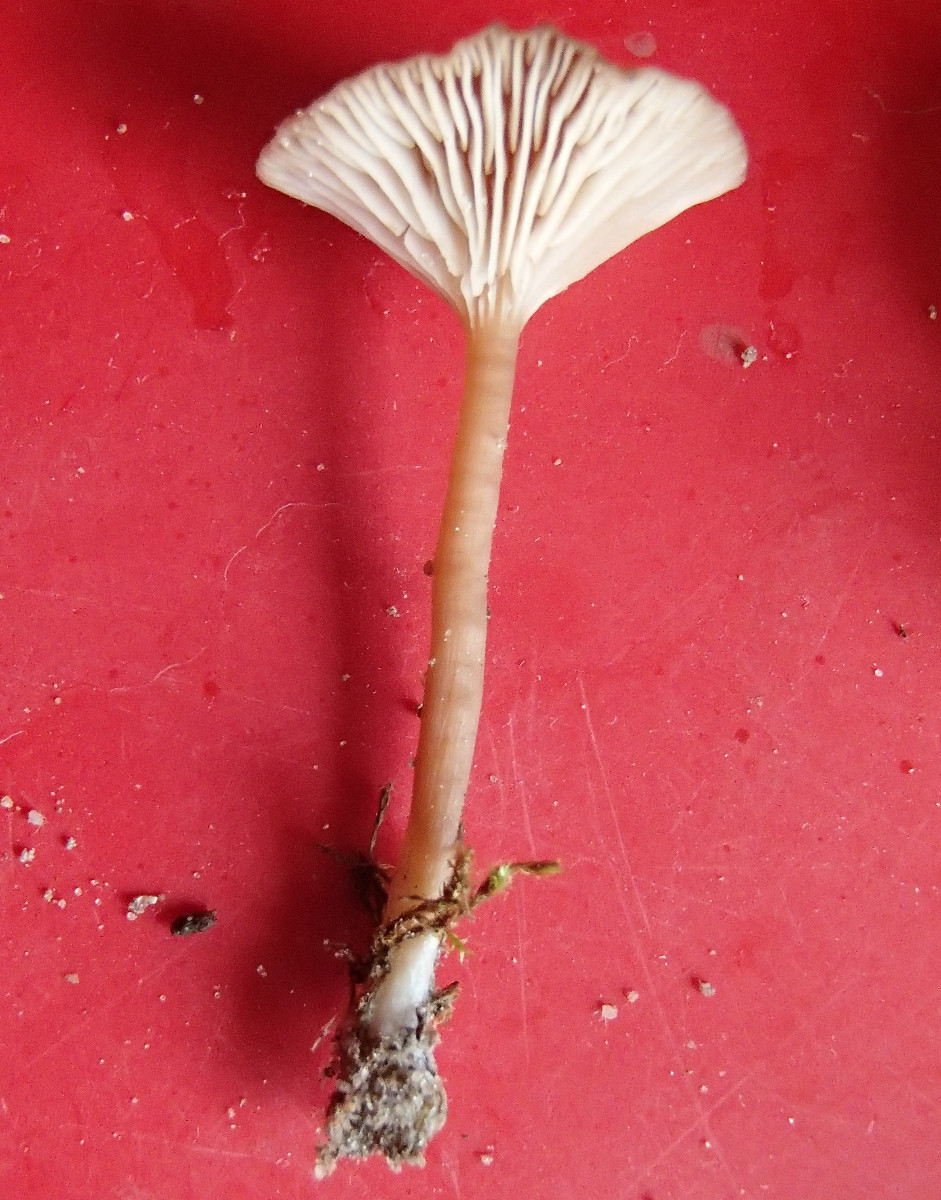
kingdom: Fungi
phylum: Basidiomycota
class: Agaricomycetes
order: Agaricales
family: Tricholomataceae
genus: Omphalina
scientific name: Omphalina pyxidata
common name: rødbrun navlehat
